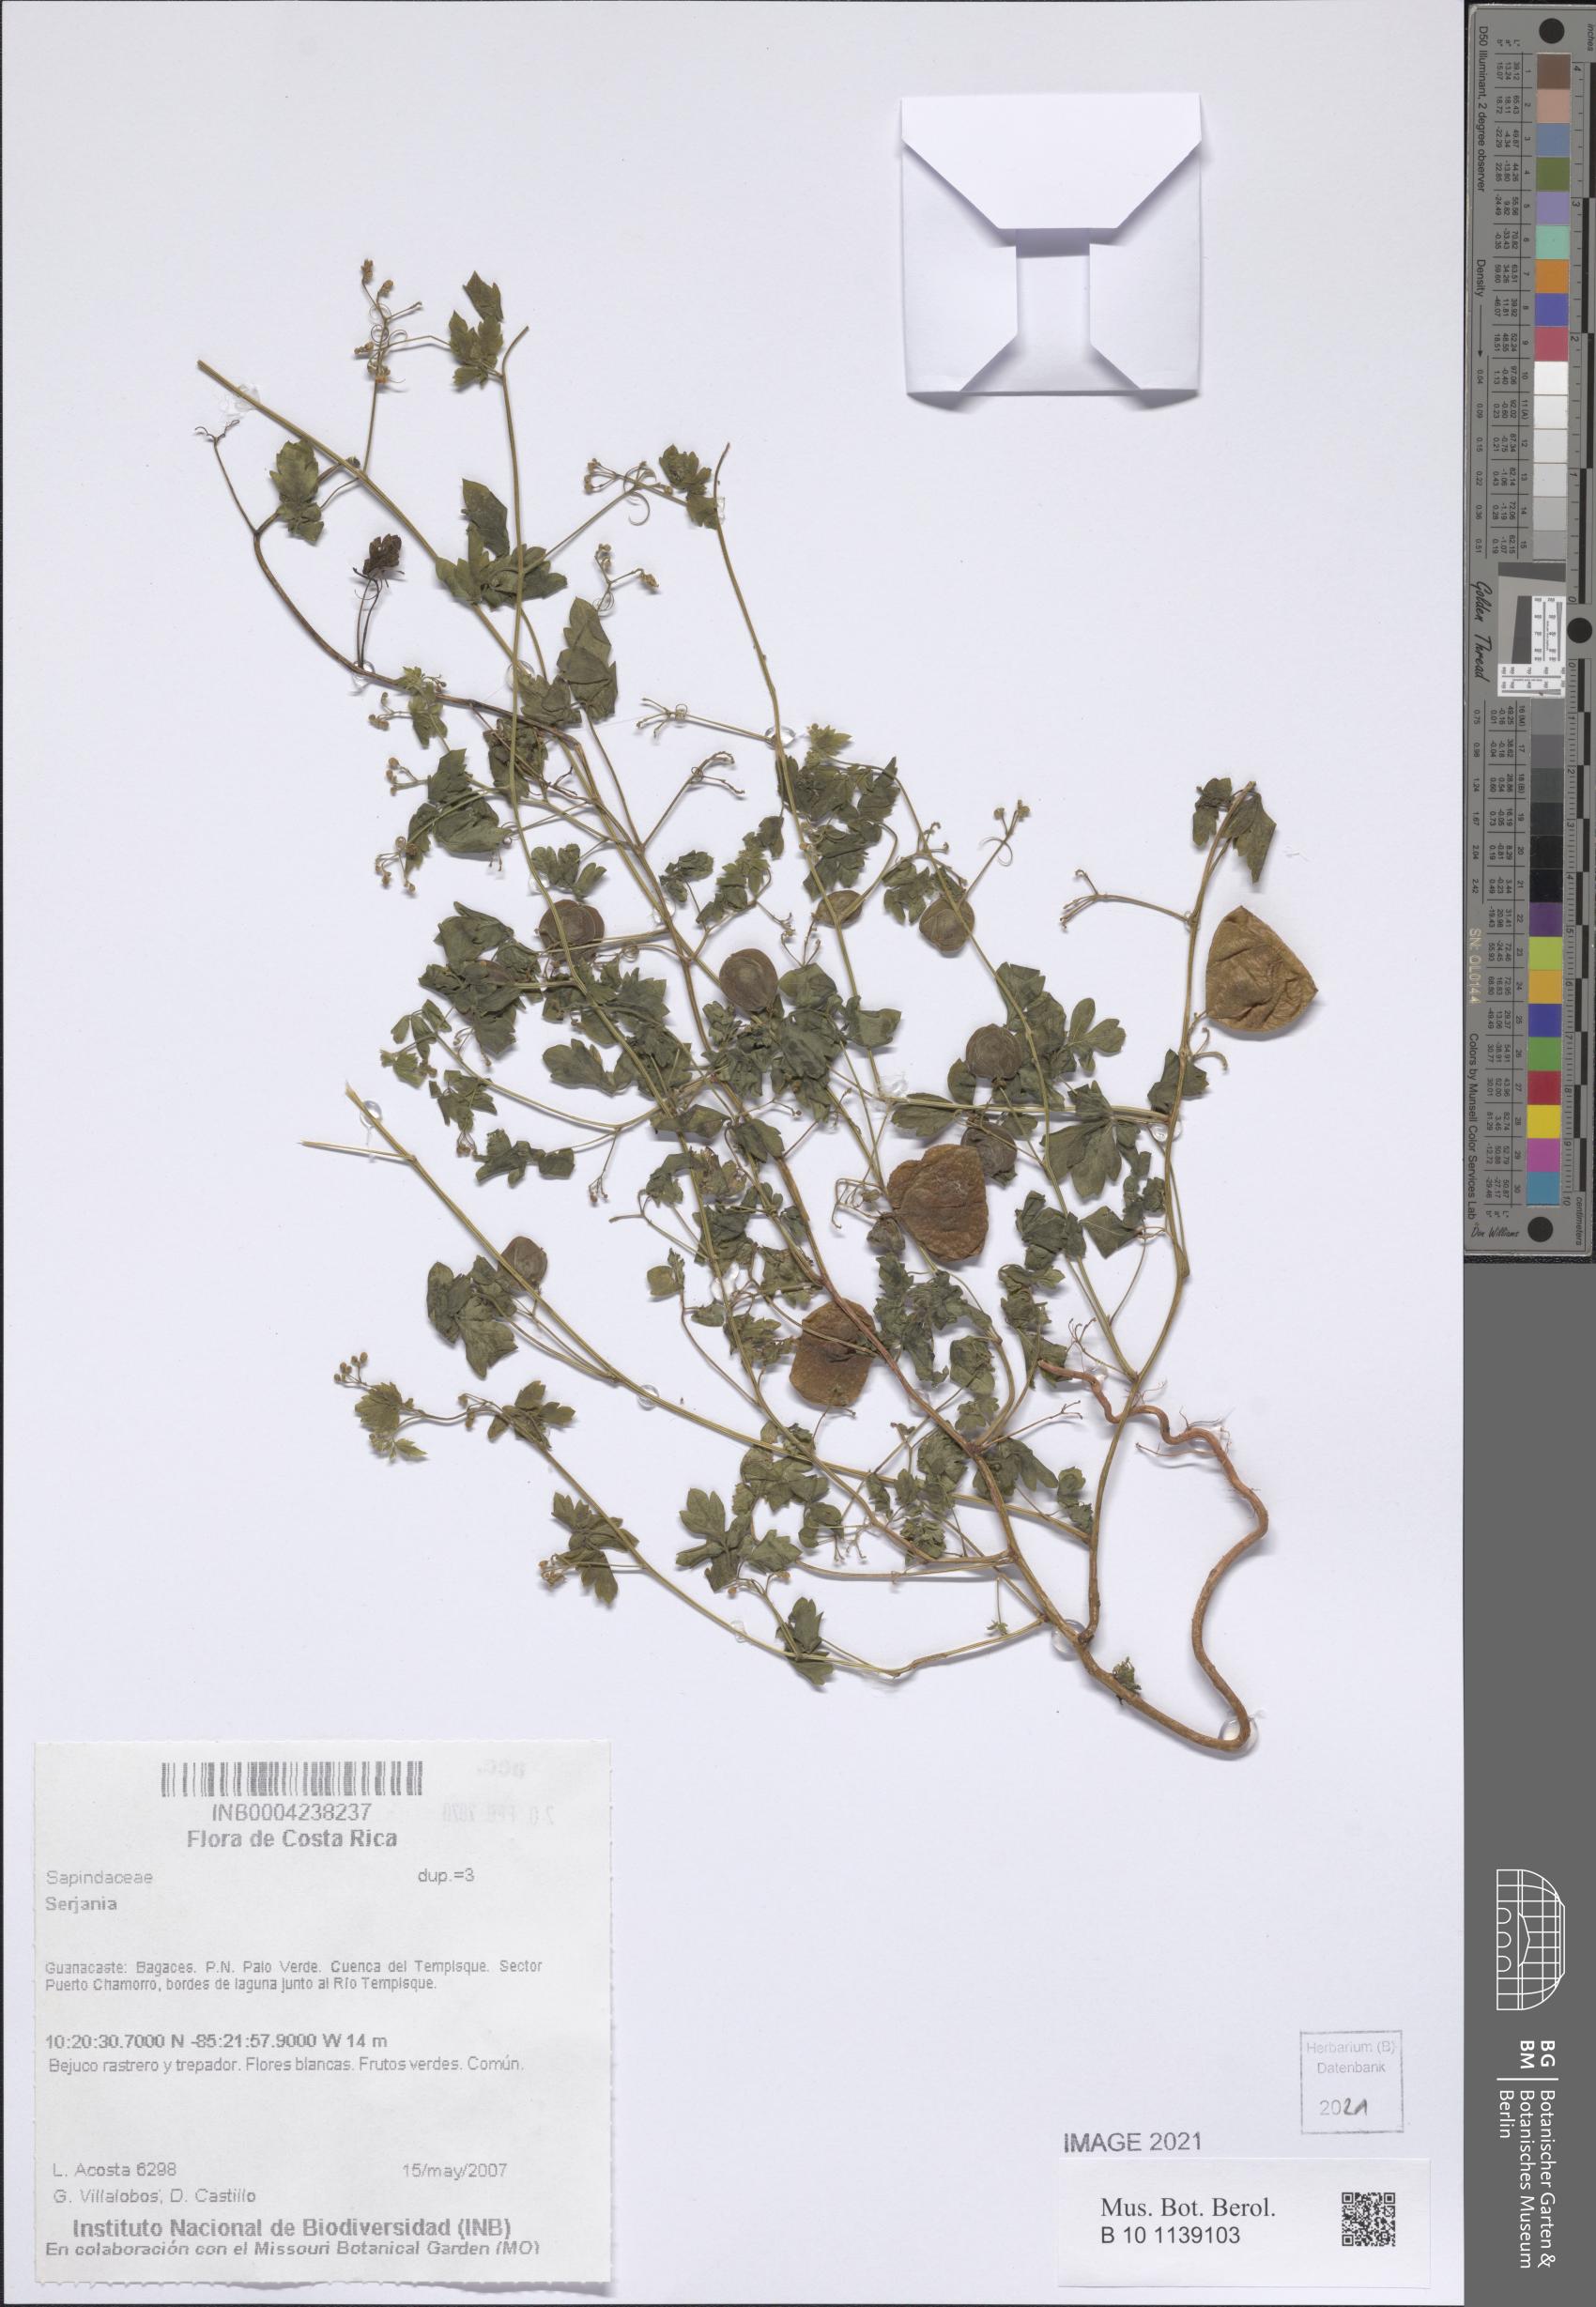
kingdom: Plantae
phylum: Tracheophyta
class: Magnoliopsida
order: Sapindales
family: Sapindaceae
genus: Serjania
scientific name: Serjania
